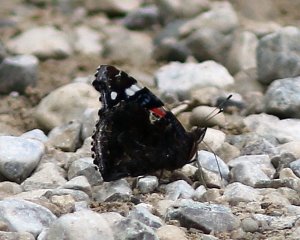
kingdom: Animalia
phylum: Arthropoda
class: Insecta
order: Lepidoptera
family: Nymphalidae
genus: Vanessa
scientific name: Vanessa atalanta
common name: Red Admiral
